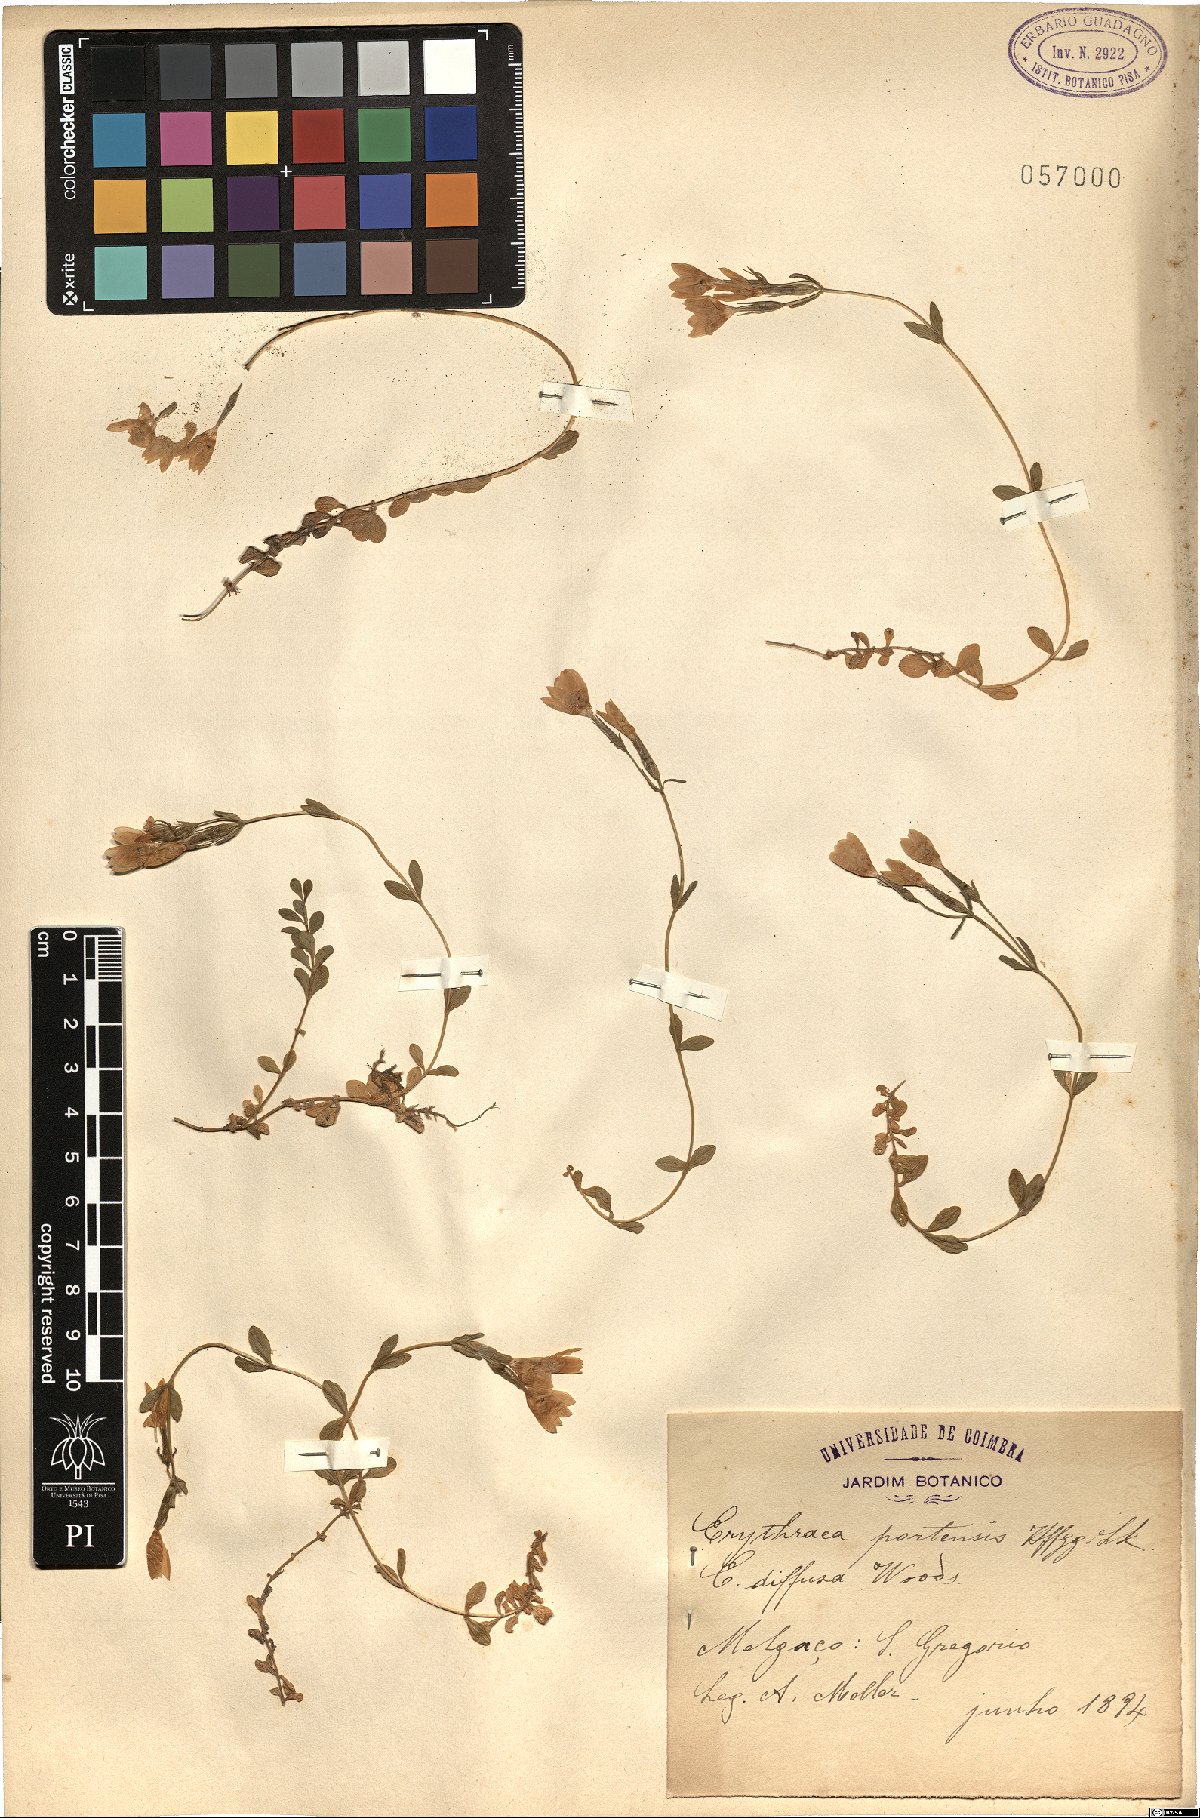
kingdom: Plantae
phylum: Tracheophyta
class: Magnoliopsida
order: Gentianales
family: Gentianaceae
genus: Centaurium
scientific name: Centaurium scilloides
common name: Perennial centaury
